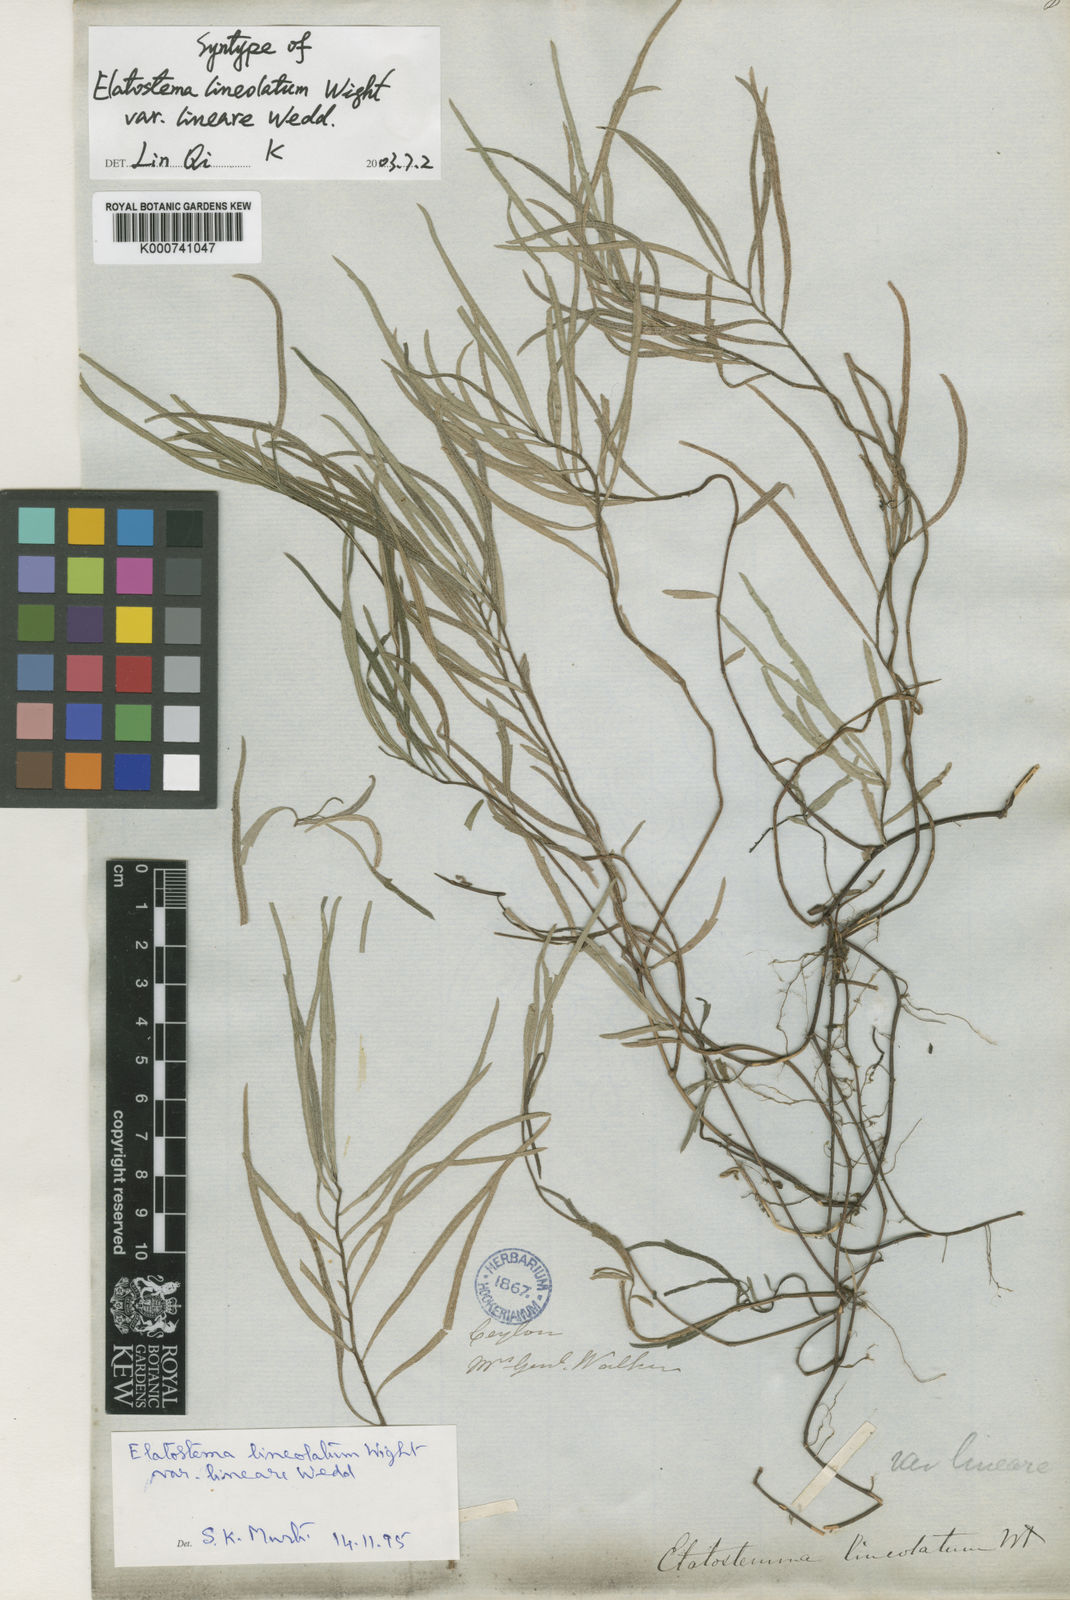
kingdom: Plantae
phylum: Tracheophyta
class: Magnoliopsida
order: Rosales
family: Urticaceae
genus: Elatostema
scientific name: Elatostema lineolatum
